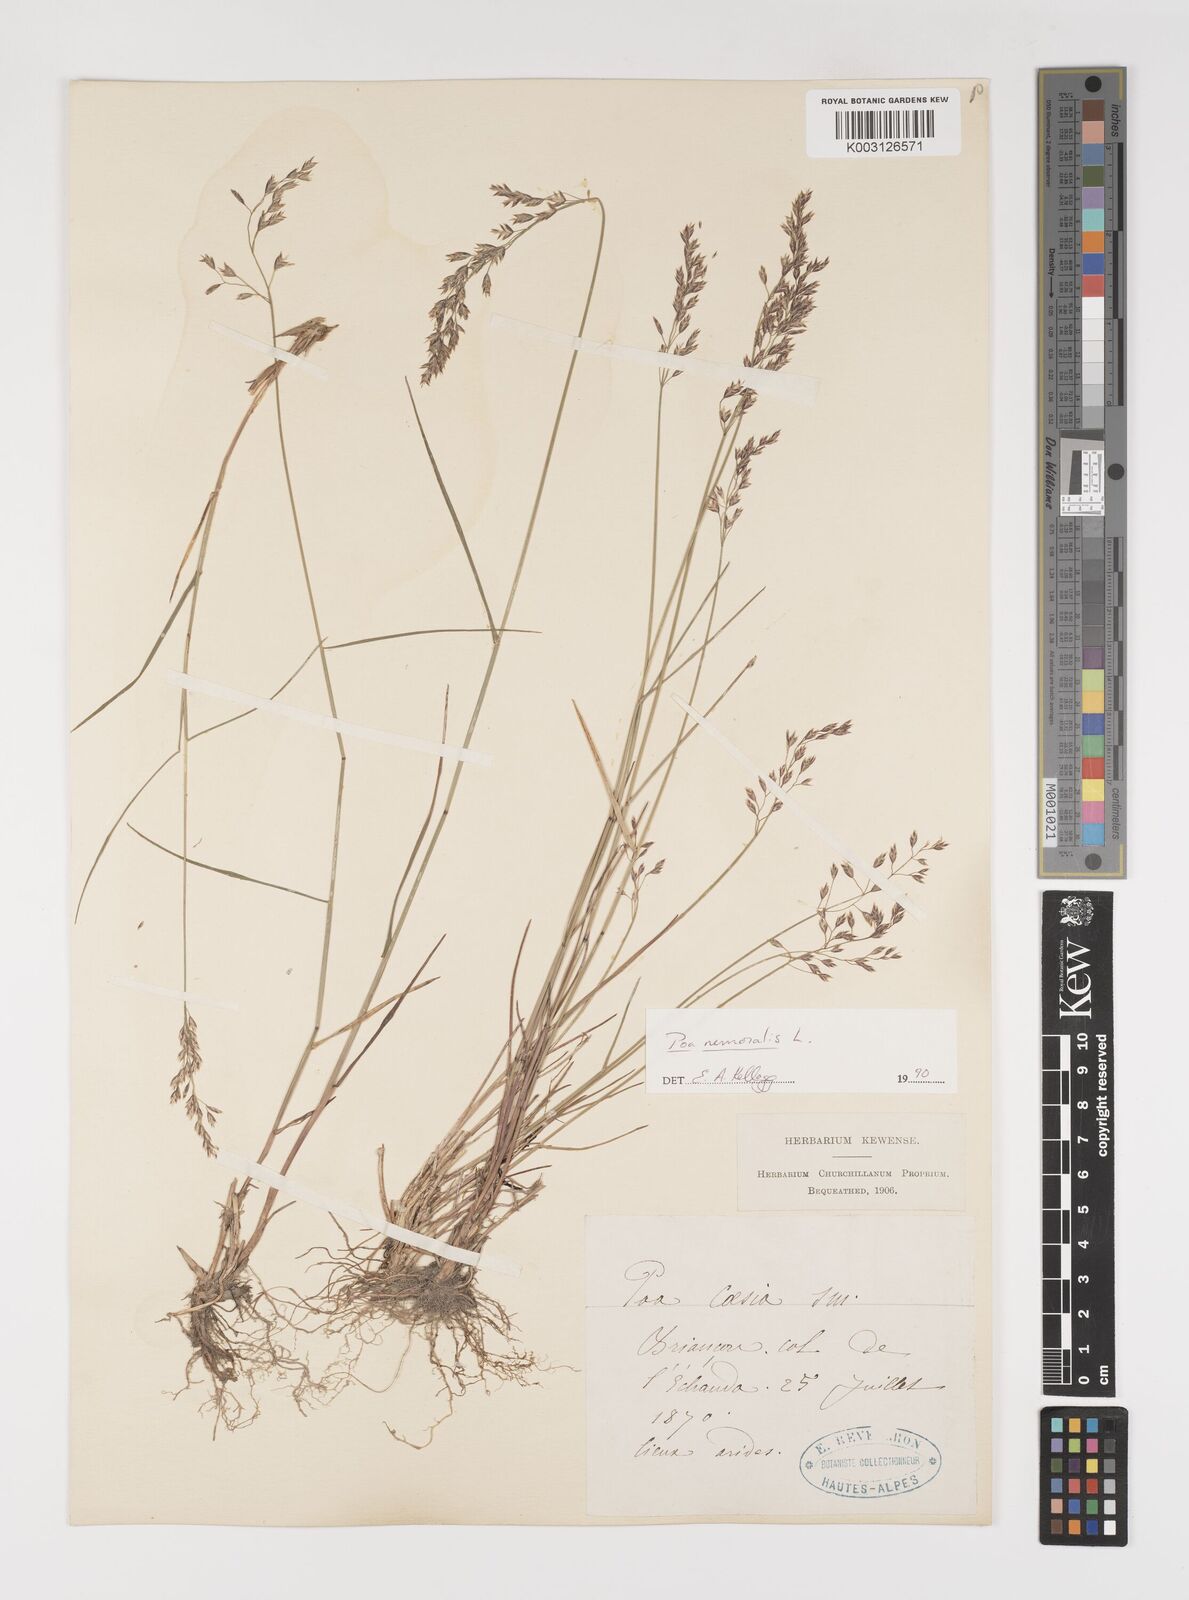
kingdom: Plantae
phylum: Tracheophyta
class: Liliopsida
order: Poales
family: Poaceae
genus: Poa
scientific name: Poa nemoralis
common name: Wood bluegrass
